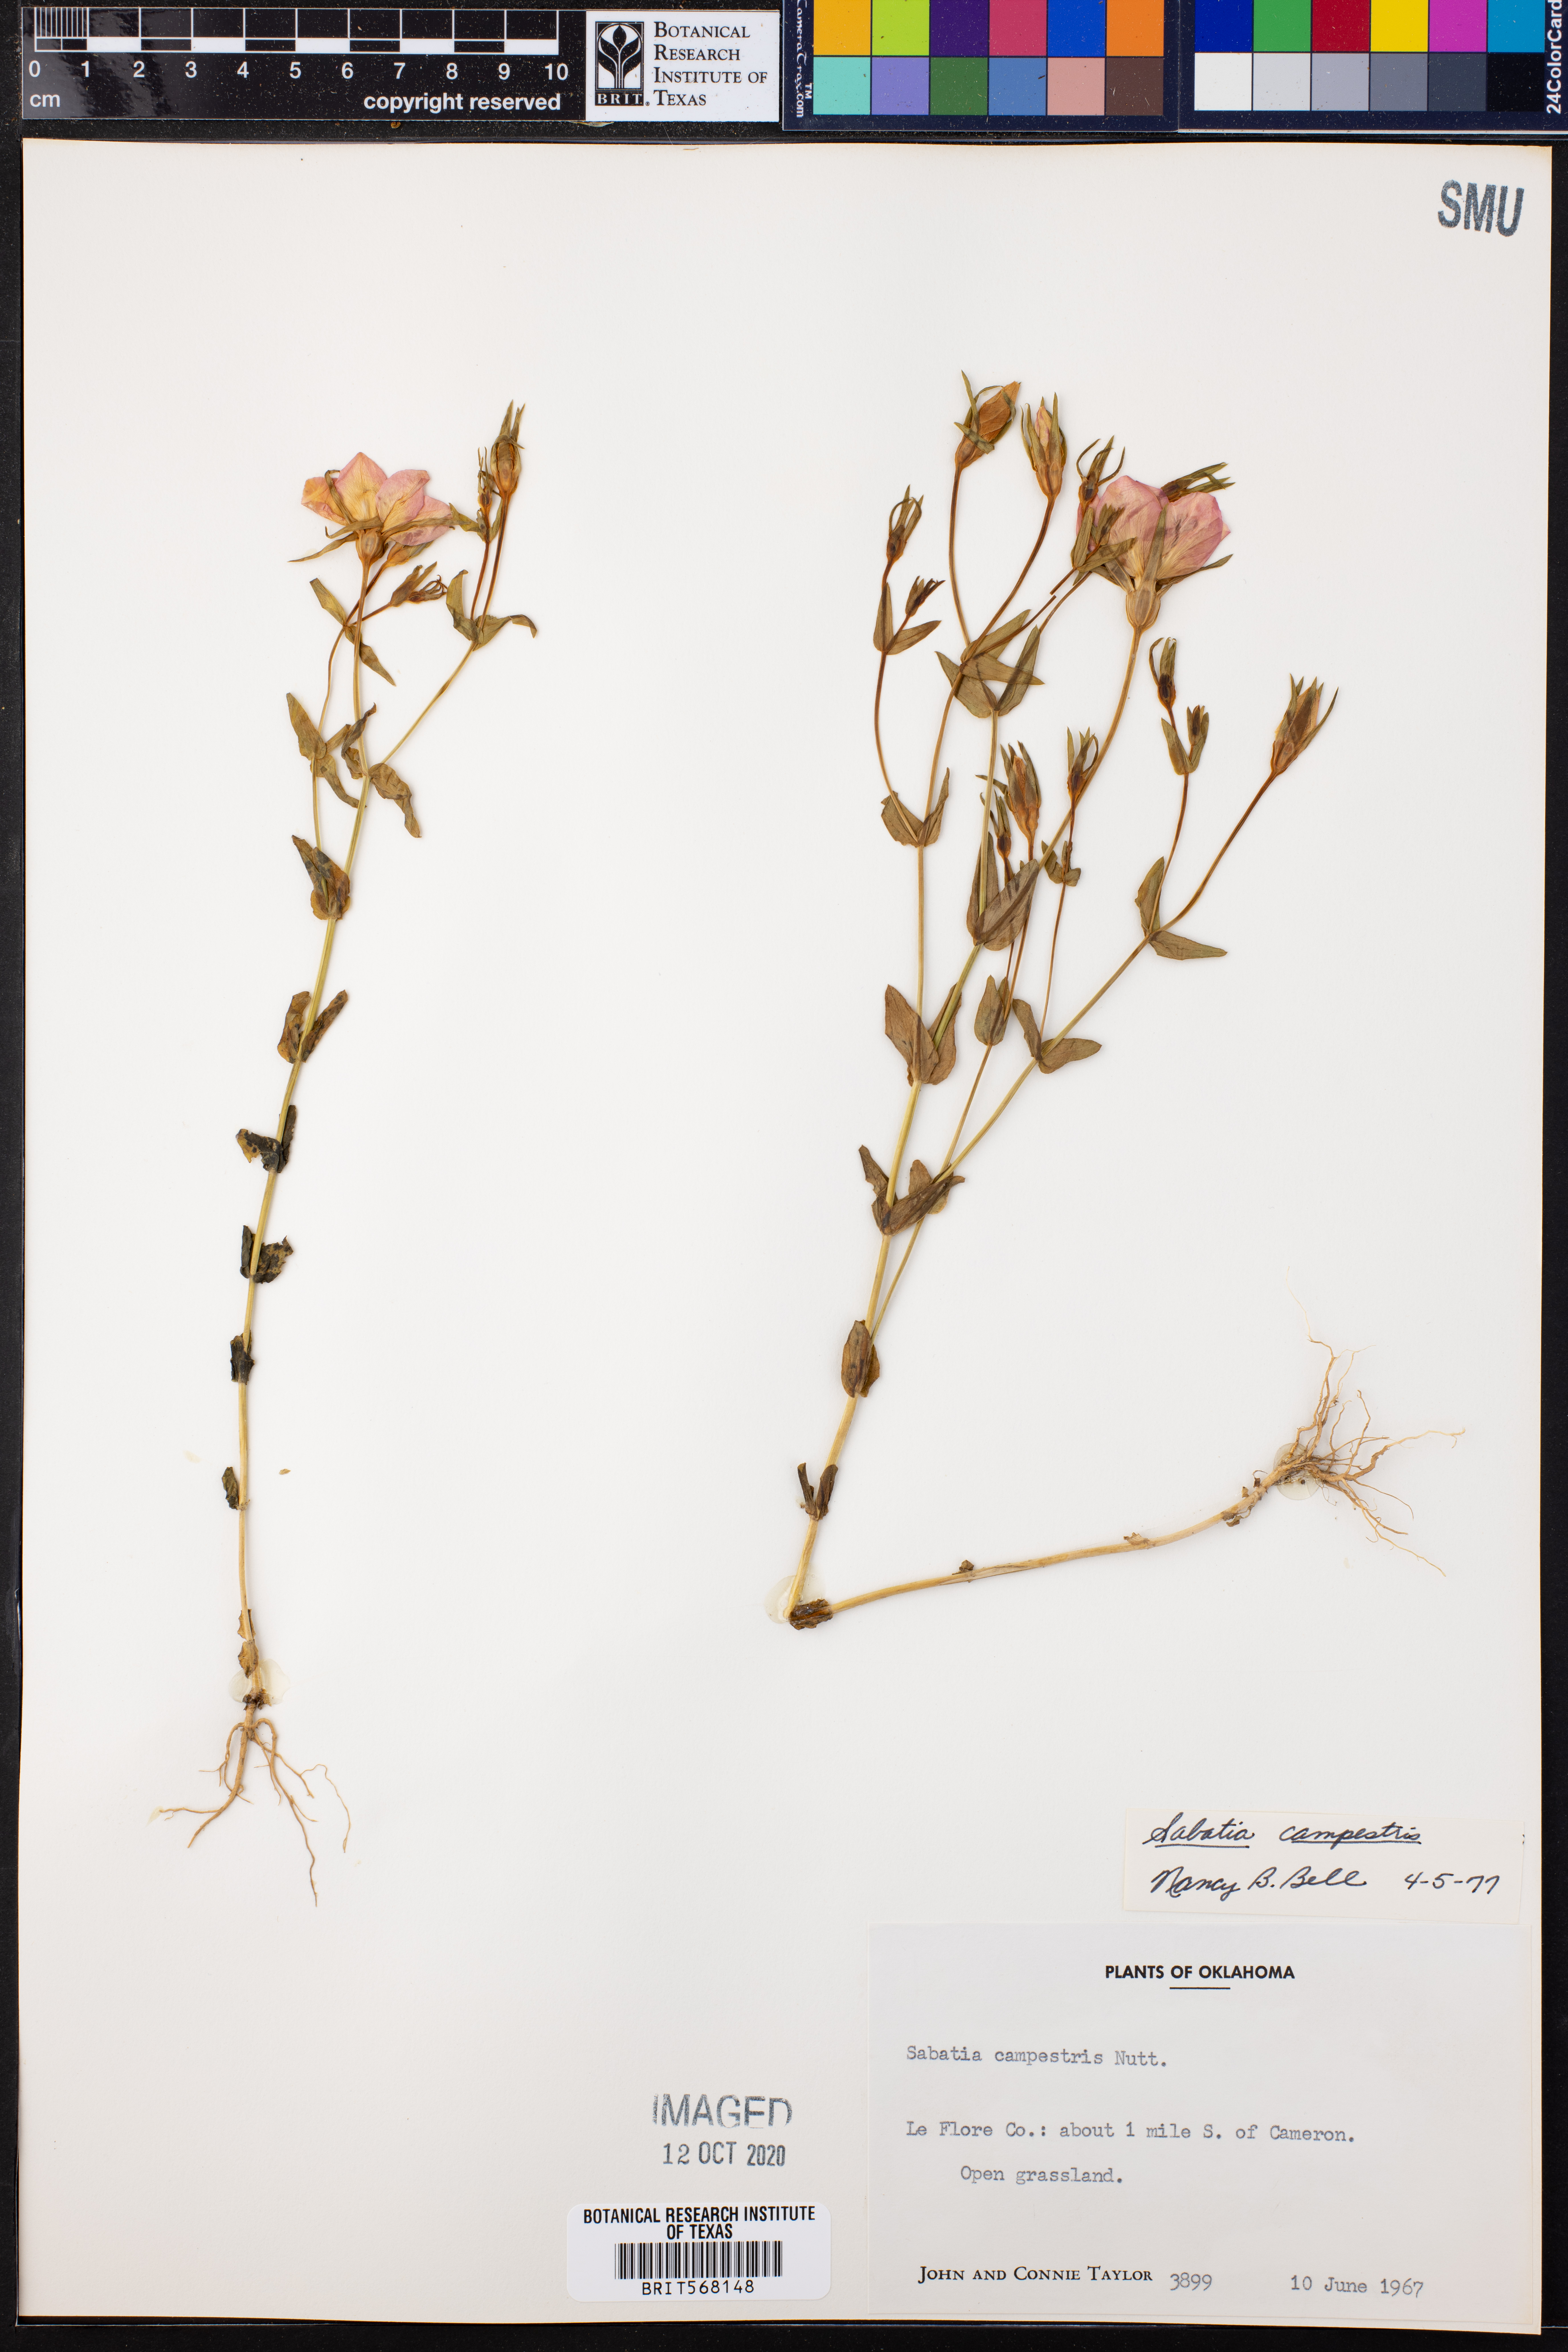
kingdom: Plantae
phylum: Tracheophyta
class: Magnoliopsida
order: Gentianales
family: Gentianaceae
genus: Sabatia
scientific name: Sabatia campestris
